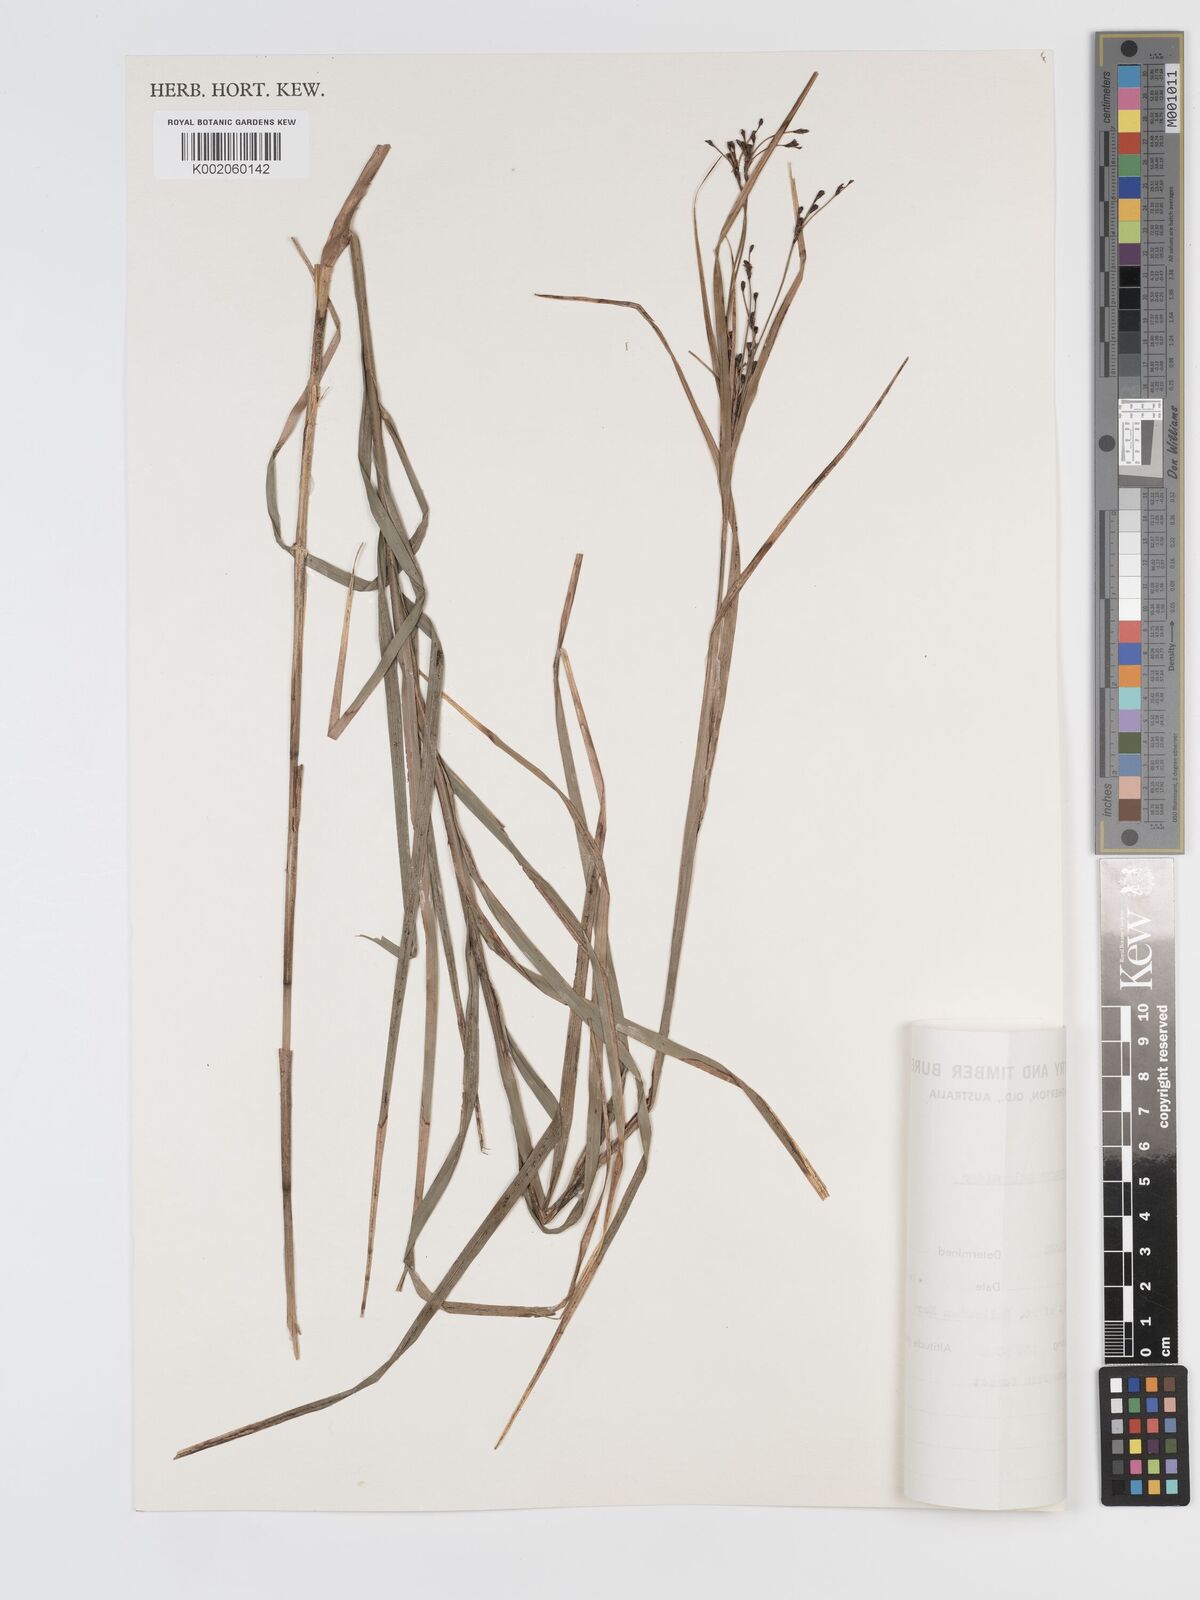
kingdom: Plantae
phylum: Tracheophyta
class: Liliopsida
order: Poales
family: Cyperaceae
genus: Exocarya
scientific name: Exocarya sclerioides
